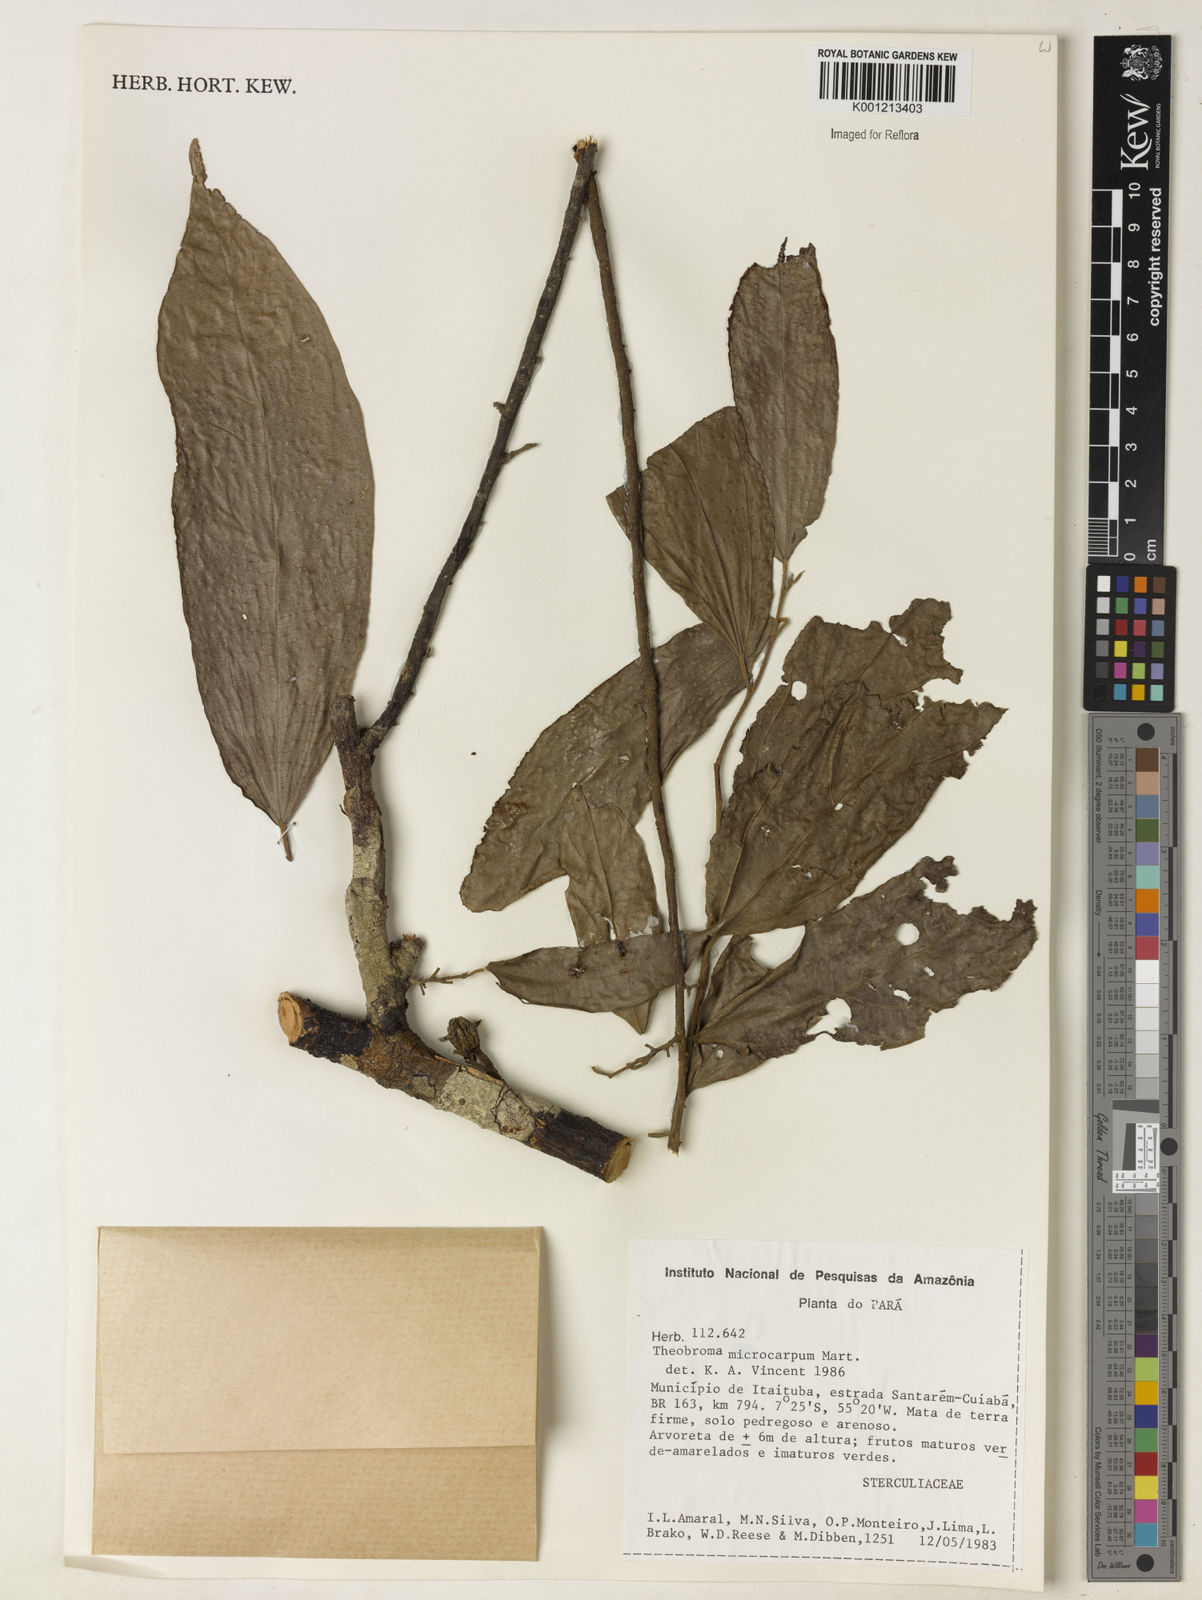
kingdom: Plantae
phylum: Tracheophyta
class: Magnoliopsida
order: Malvales
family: Malvaceae
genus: Theobroma
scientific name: Theobroma microcarpum
